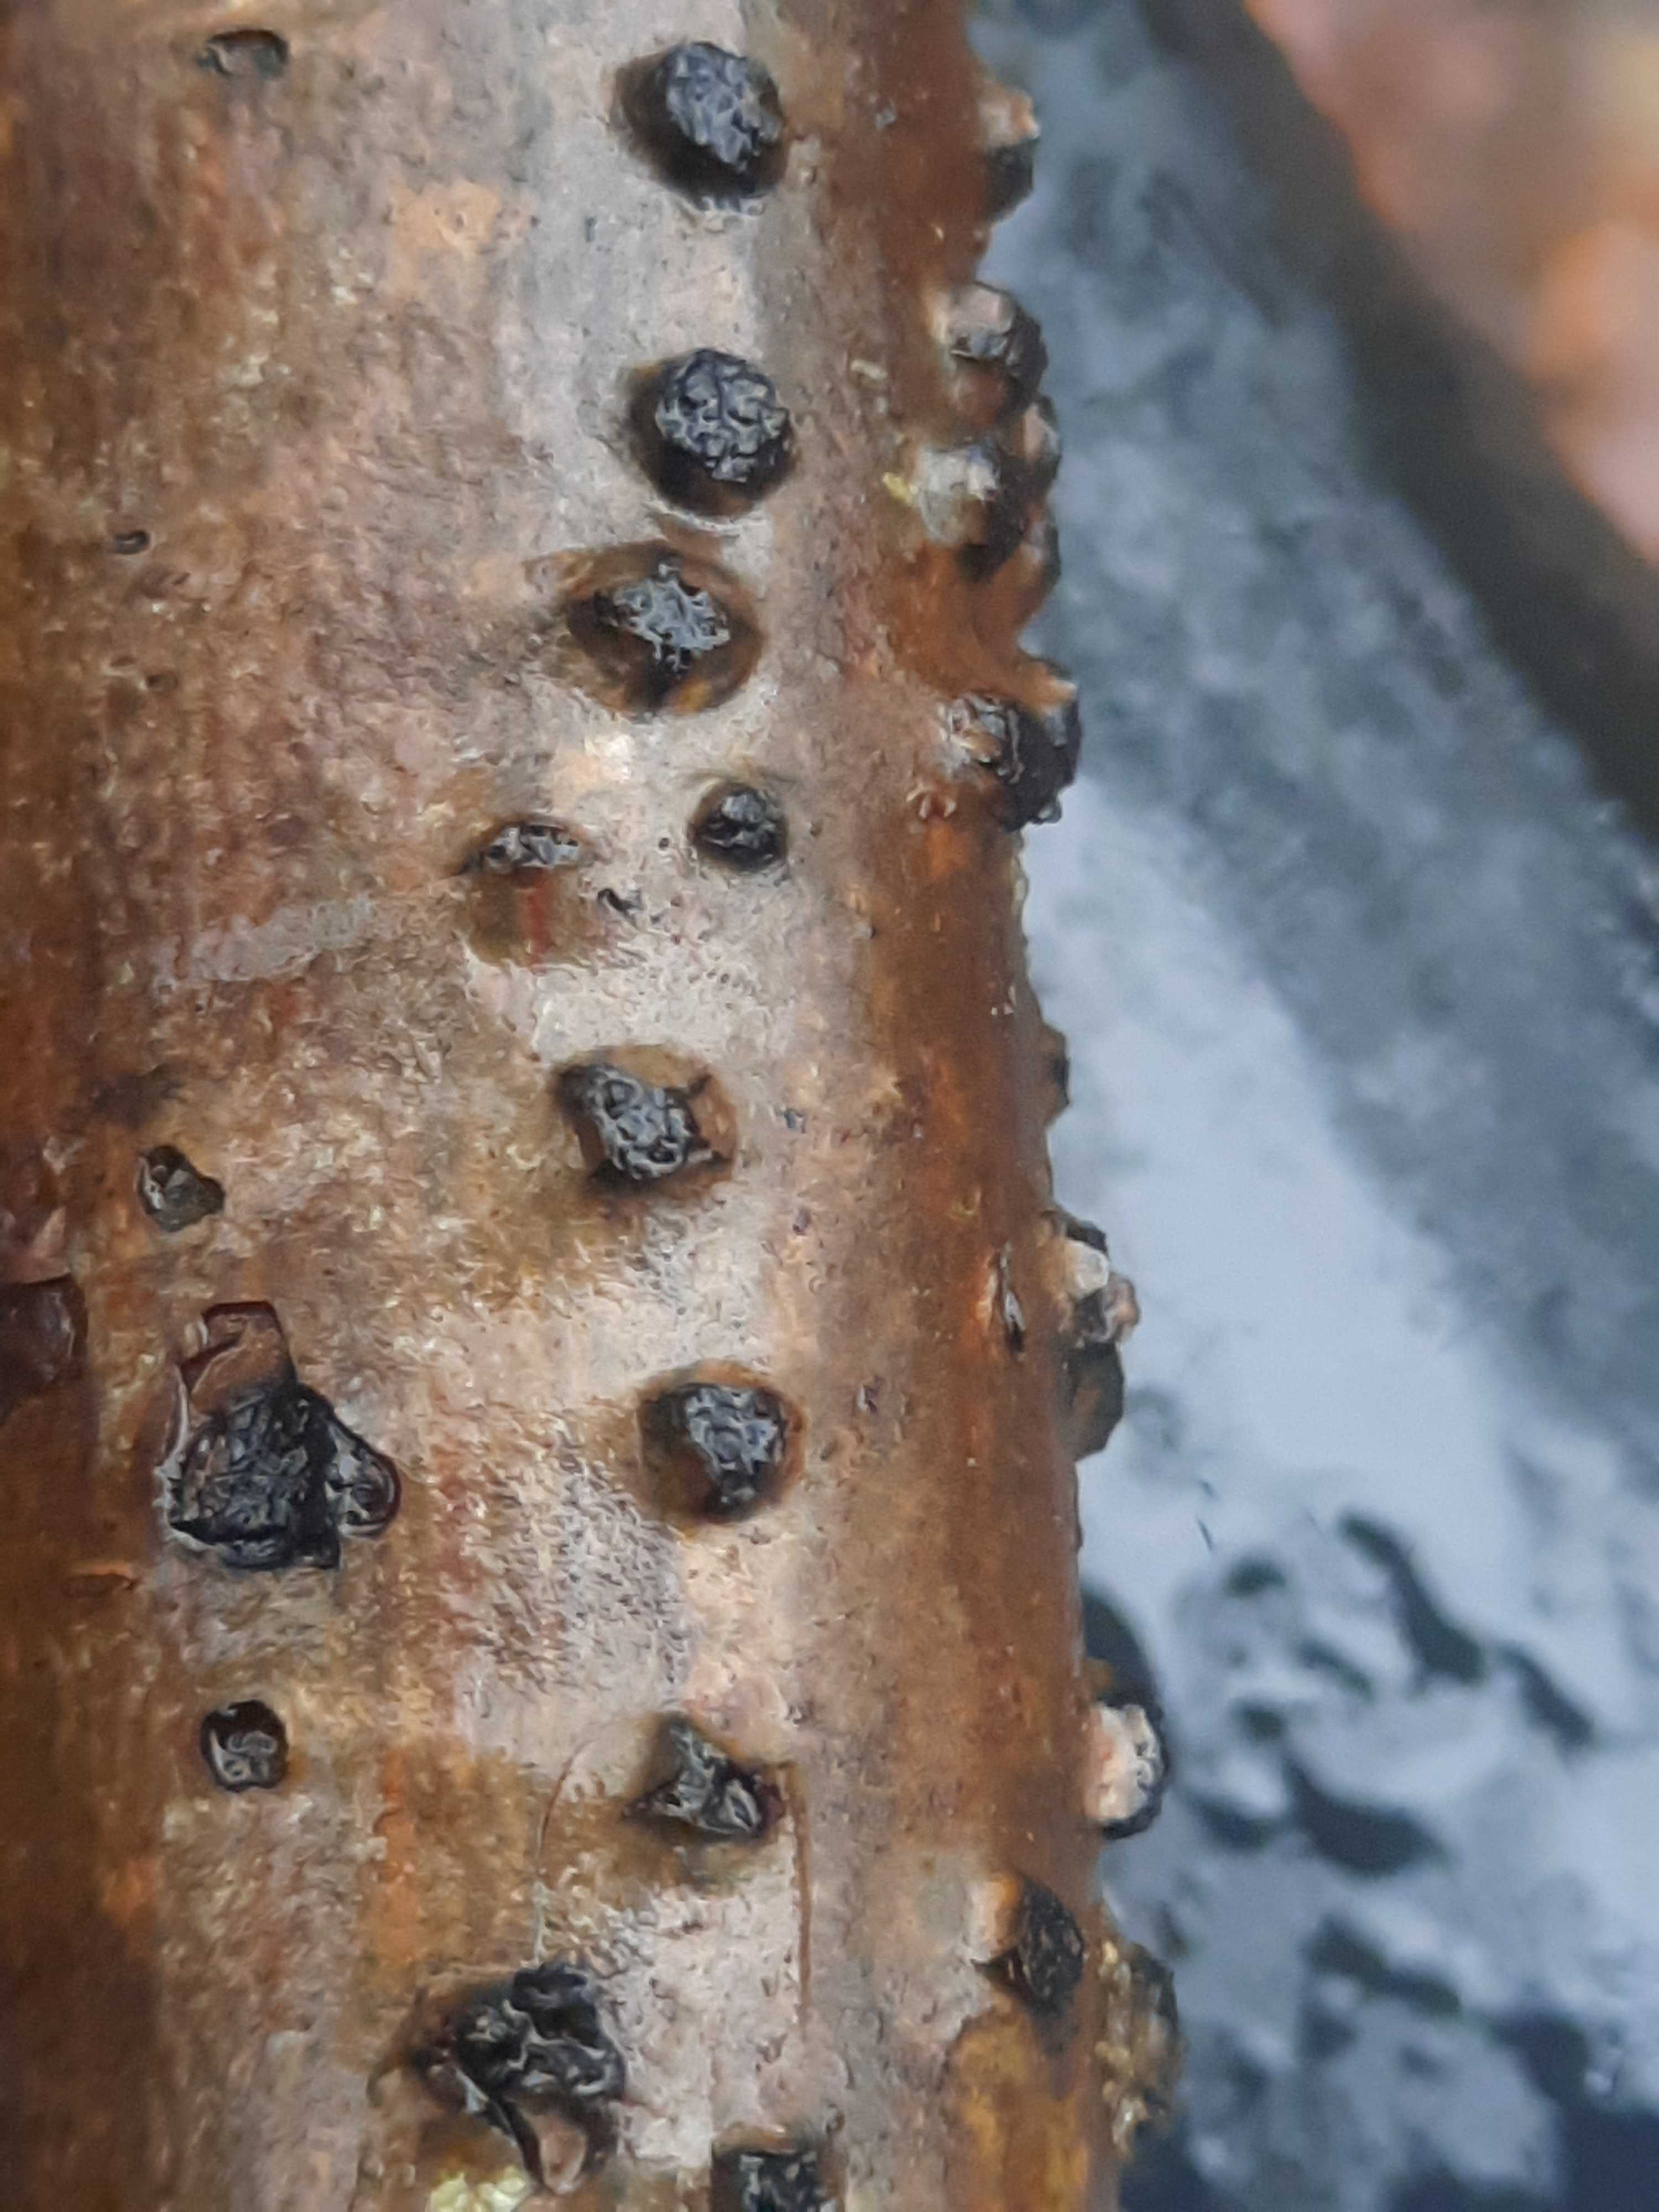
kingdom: Fungi
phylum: Ascomycota
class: Sordariomycetes
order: Xylariales
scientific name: Xylariales
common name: stødsvampordenen
